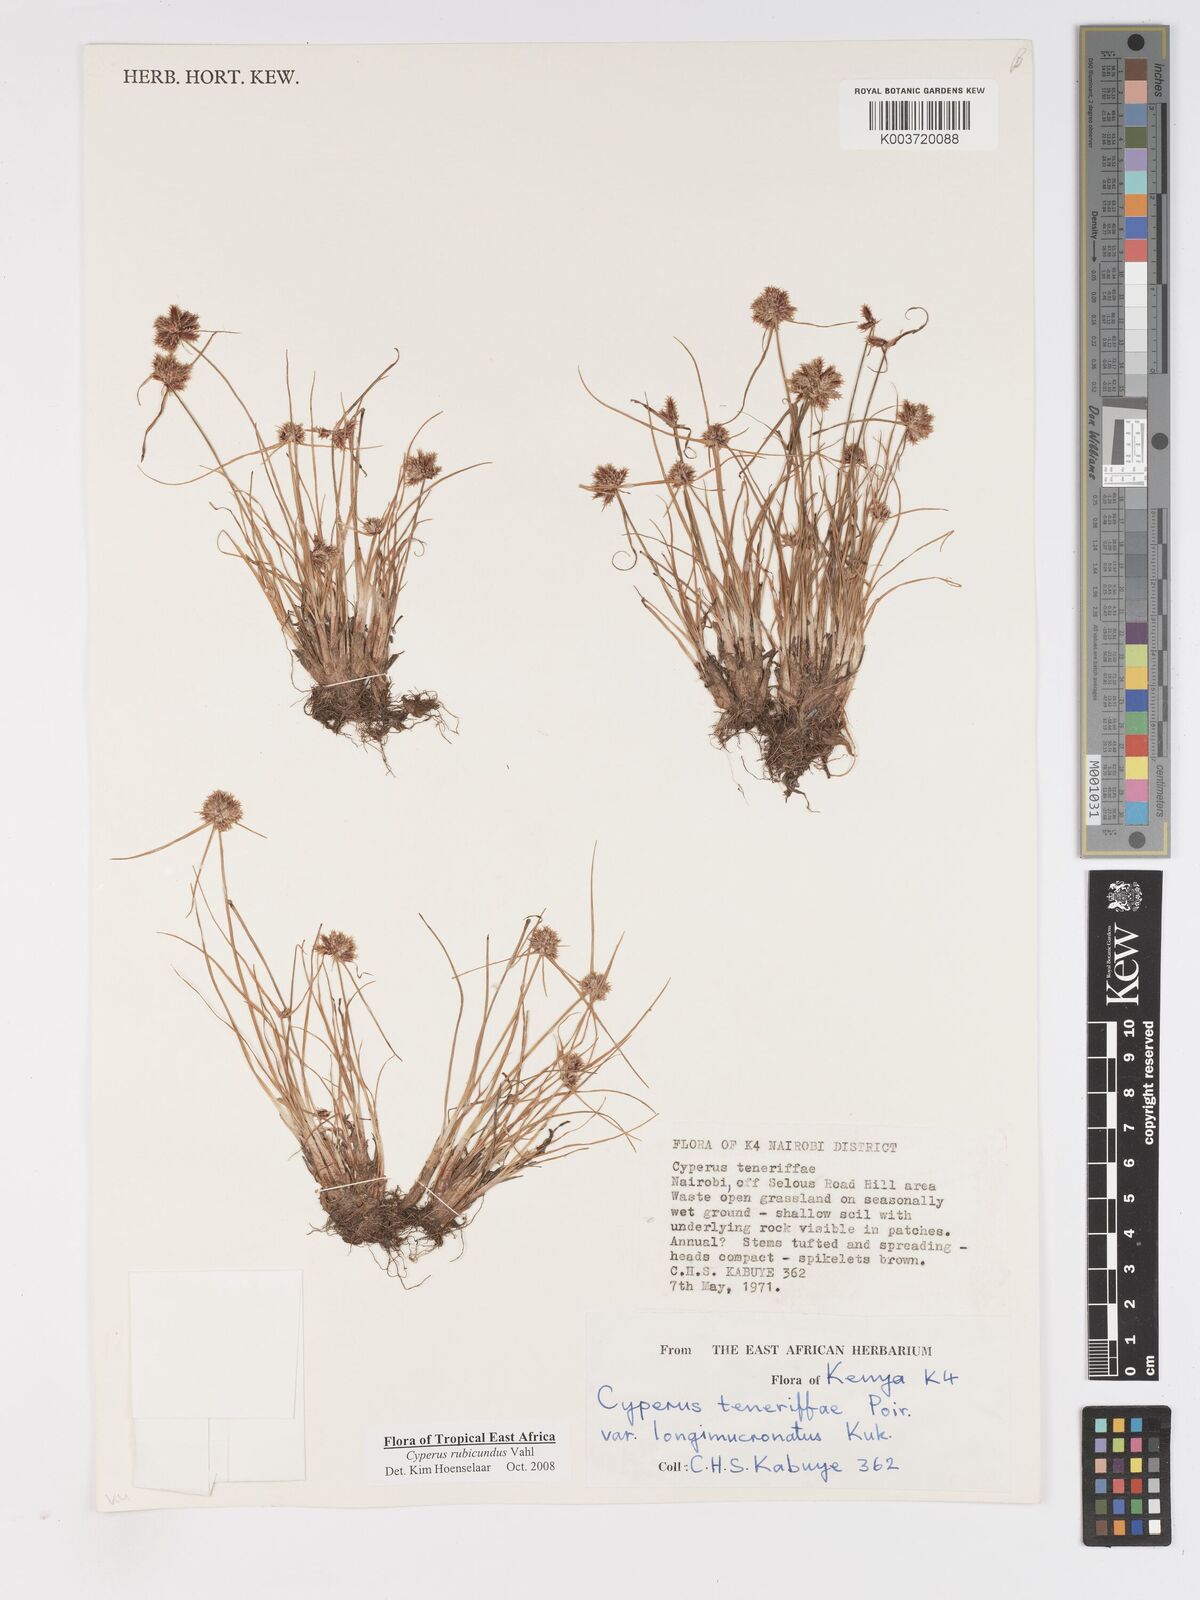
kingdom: Plantae
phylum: Tracheophyta
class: Liliopsida
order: Poales
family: Cyperaceae
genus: Cyperus
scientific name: Cyperus rubicundus
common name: Coco-grass
